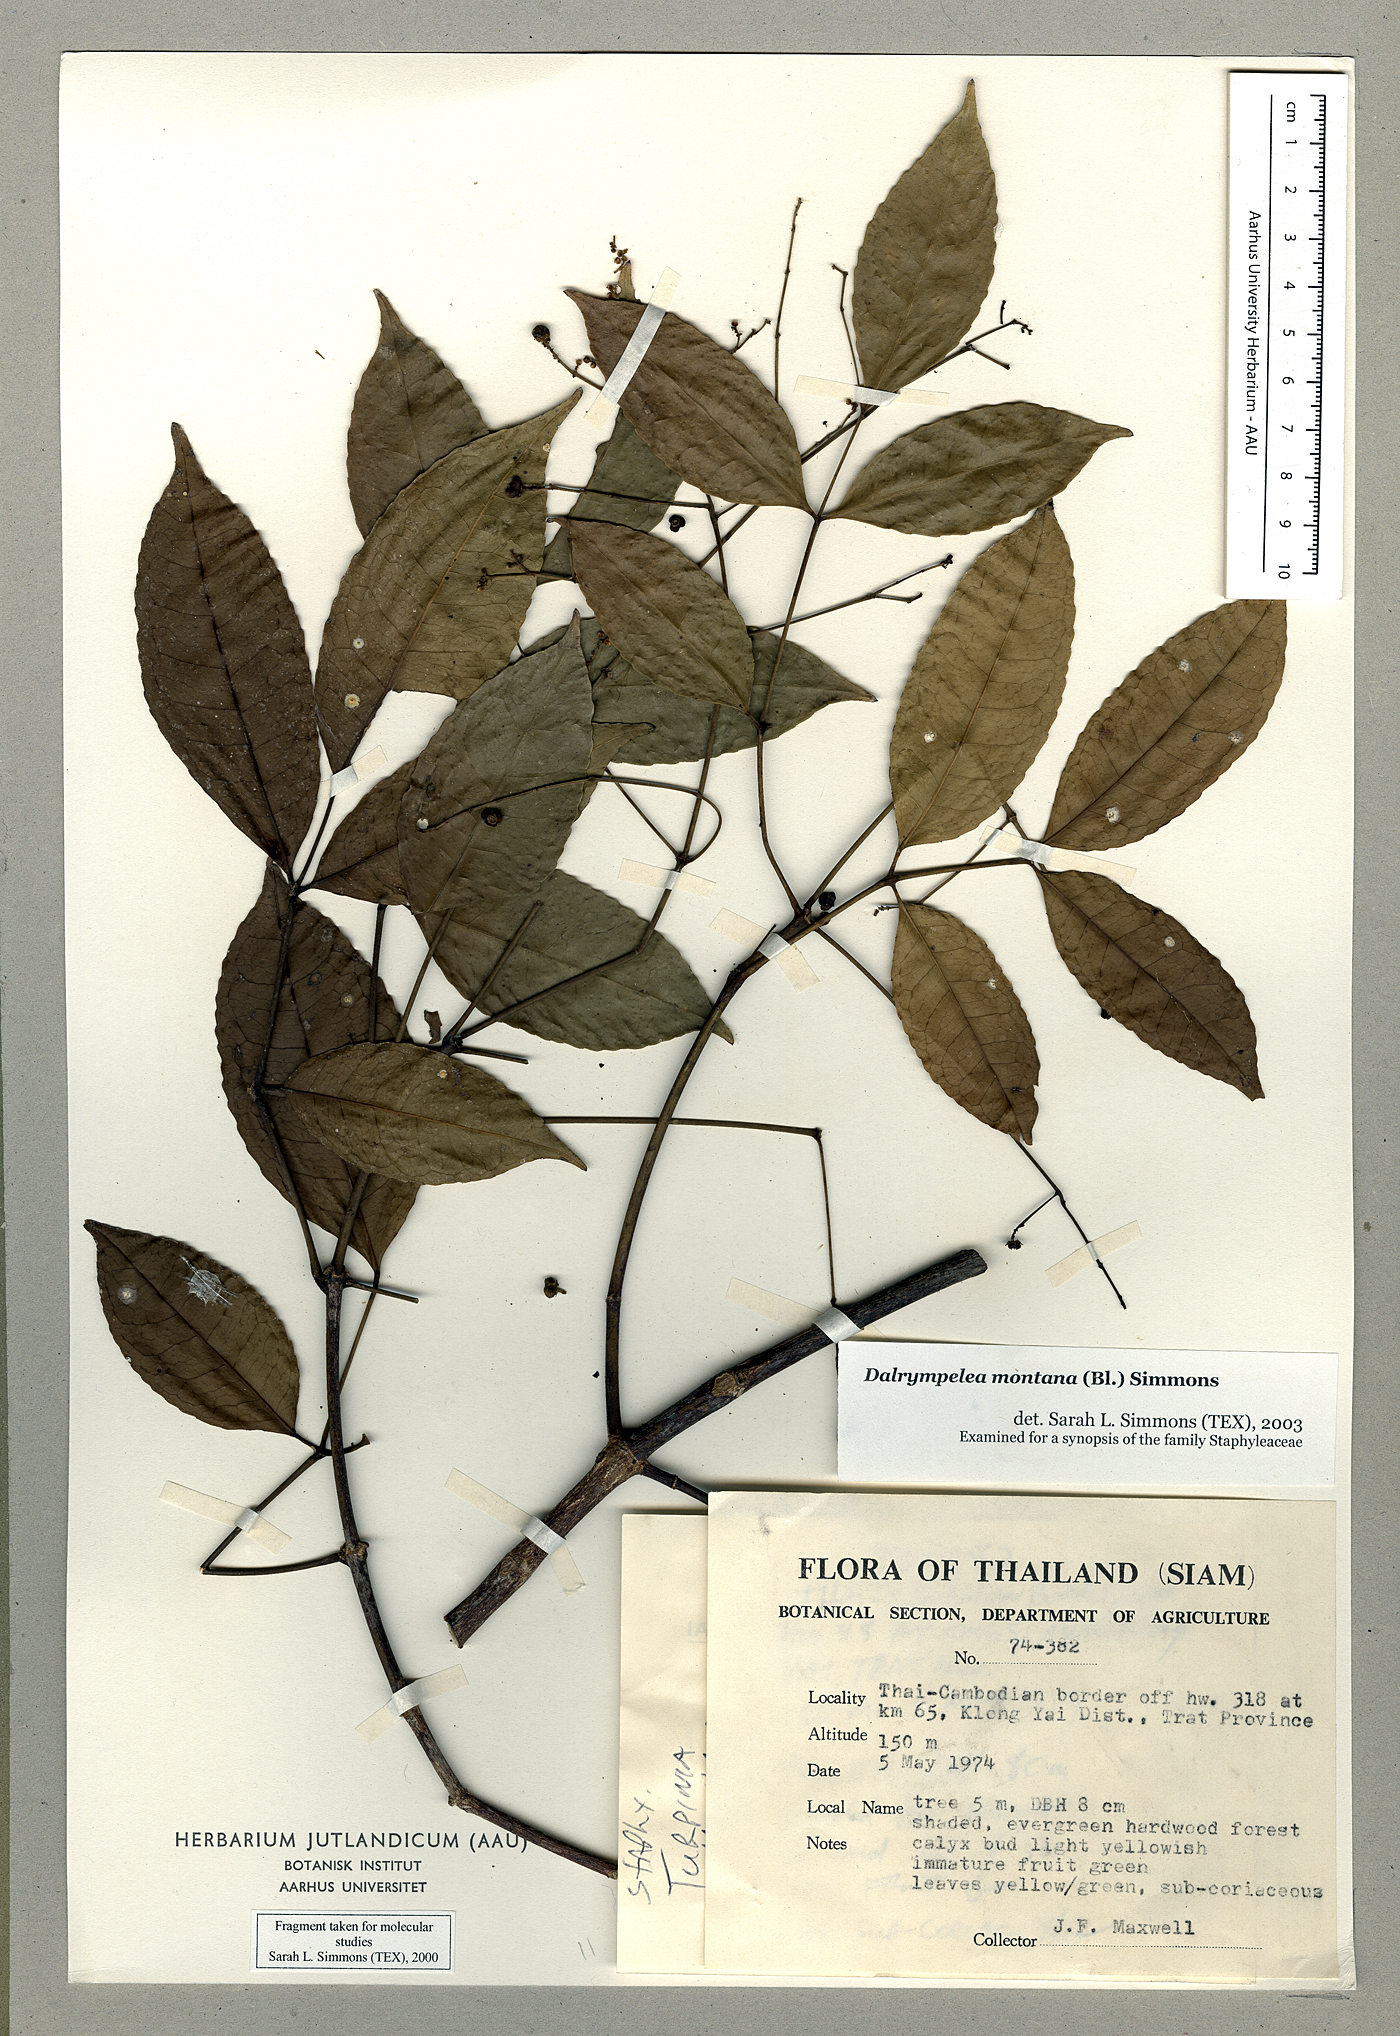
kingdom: Plantae
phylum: Tracheophyta
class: Magnoliopsida
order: Crossosomatales
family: Staphyleaceae
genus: Turpinia
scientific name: Turpinia montana
